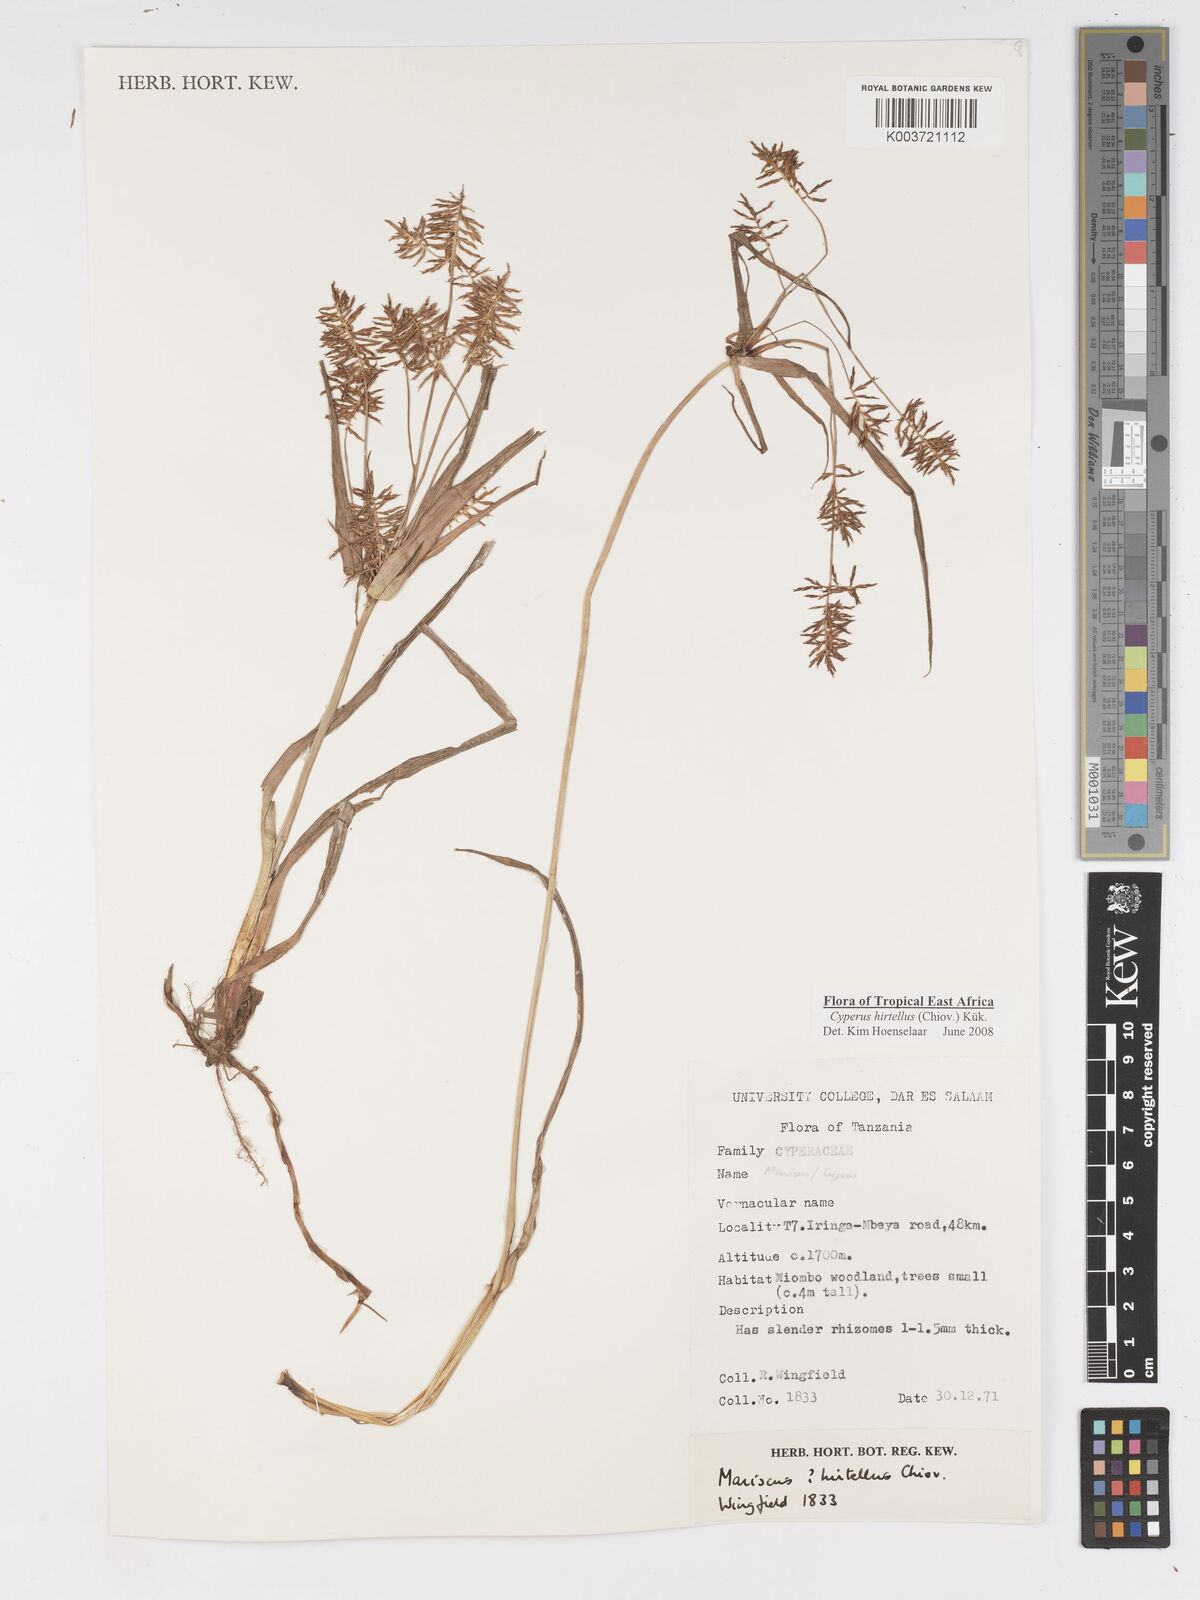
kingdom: Plantae
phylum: Tracheophyta
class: Liliopsida
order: Poales
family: Cyperaceae
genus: Cyperus
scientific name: Cyperus hirtellus
